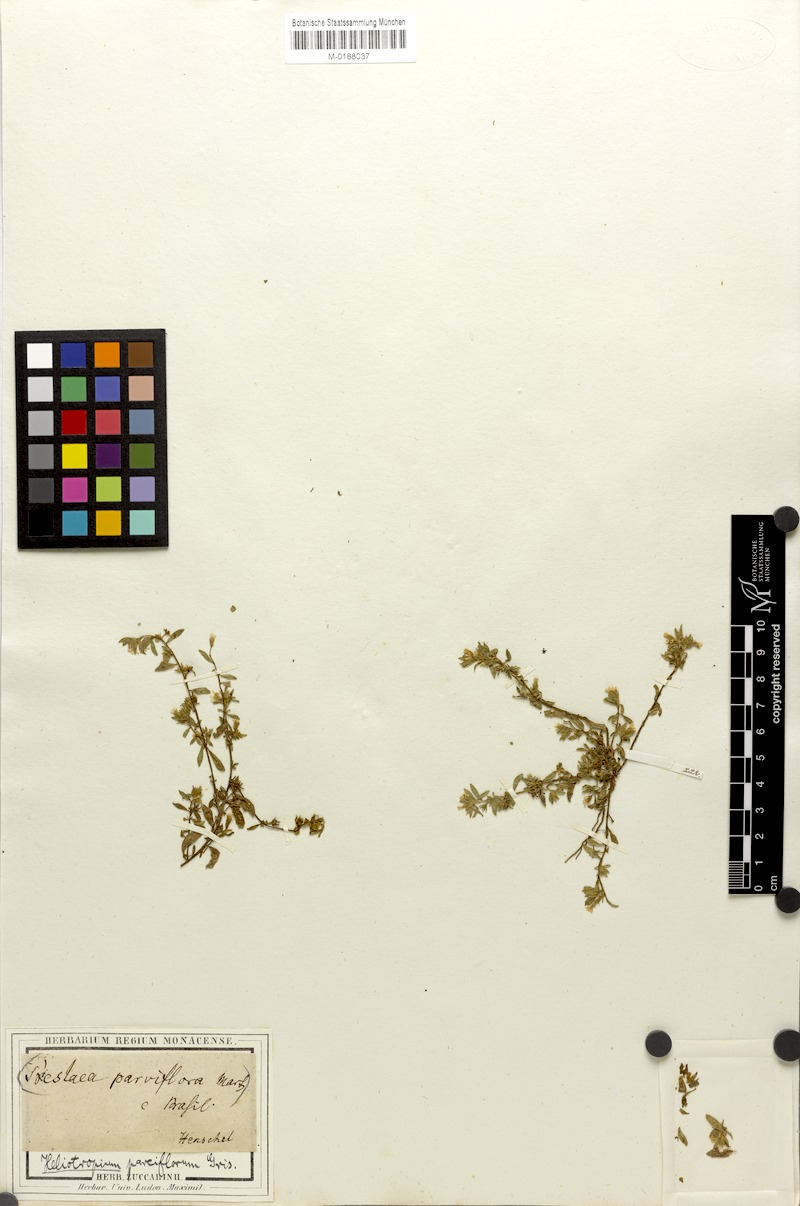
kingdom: Plantae
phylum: Tracheophyta
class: Magnoliopsida
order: Boraginales
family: Heliotropiaceae
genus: Euploca
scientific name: Euploca parciflora
